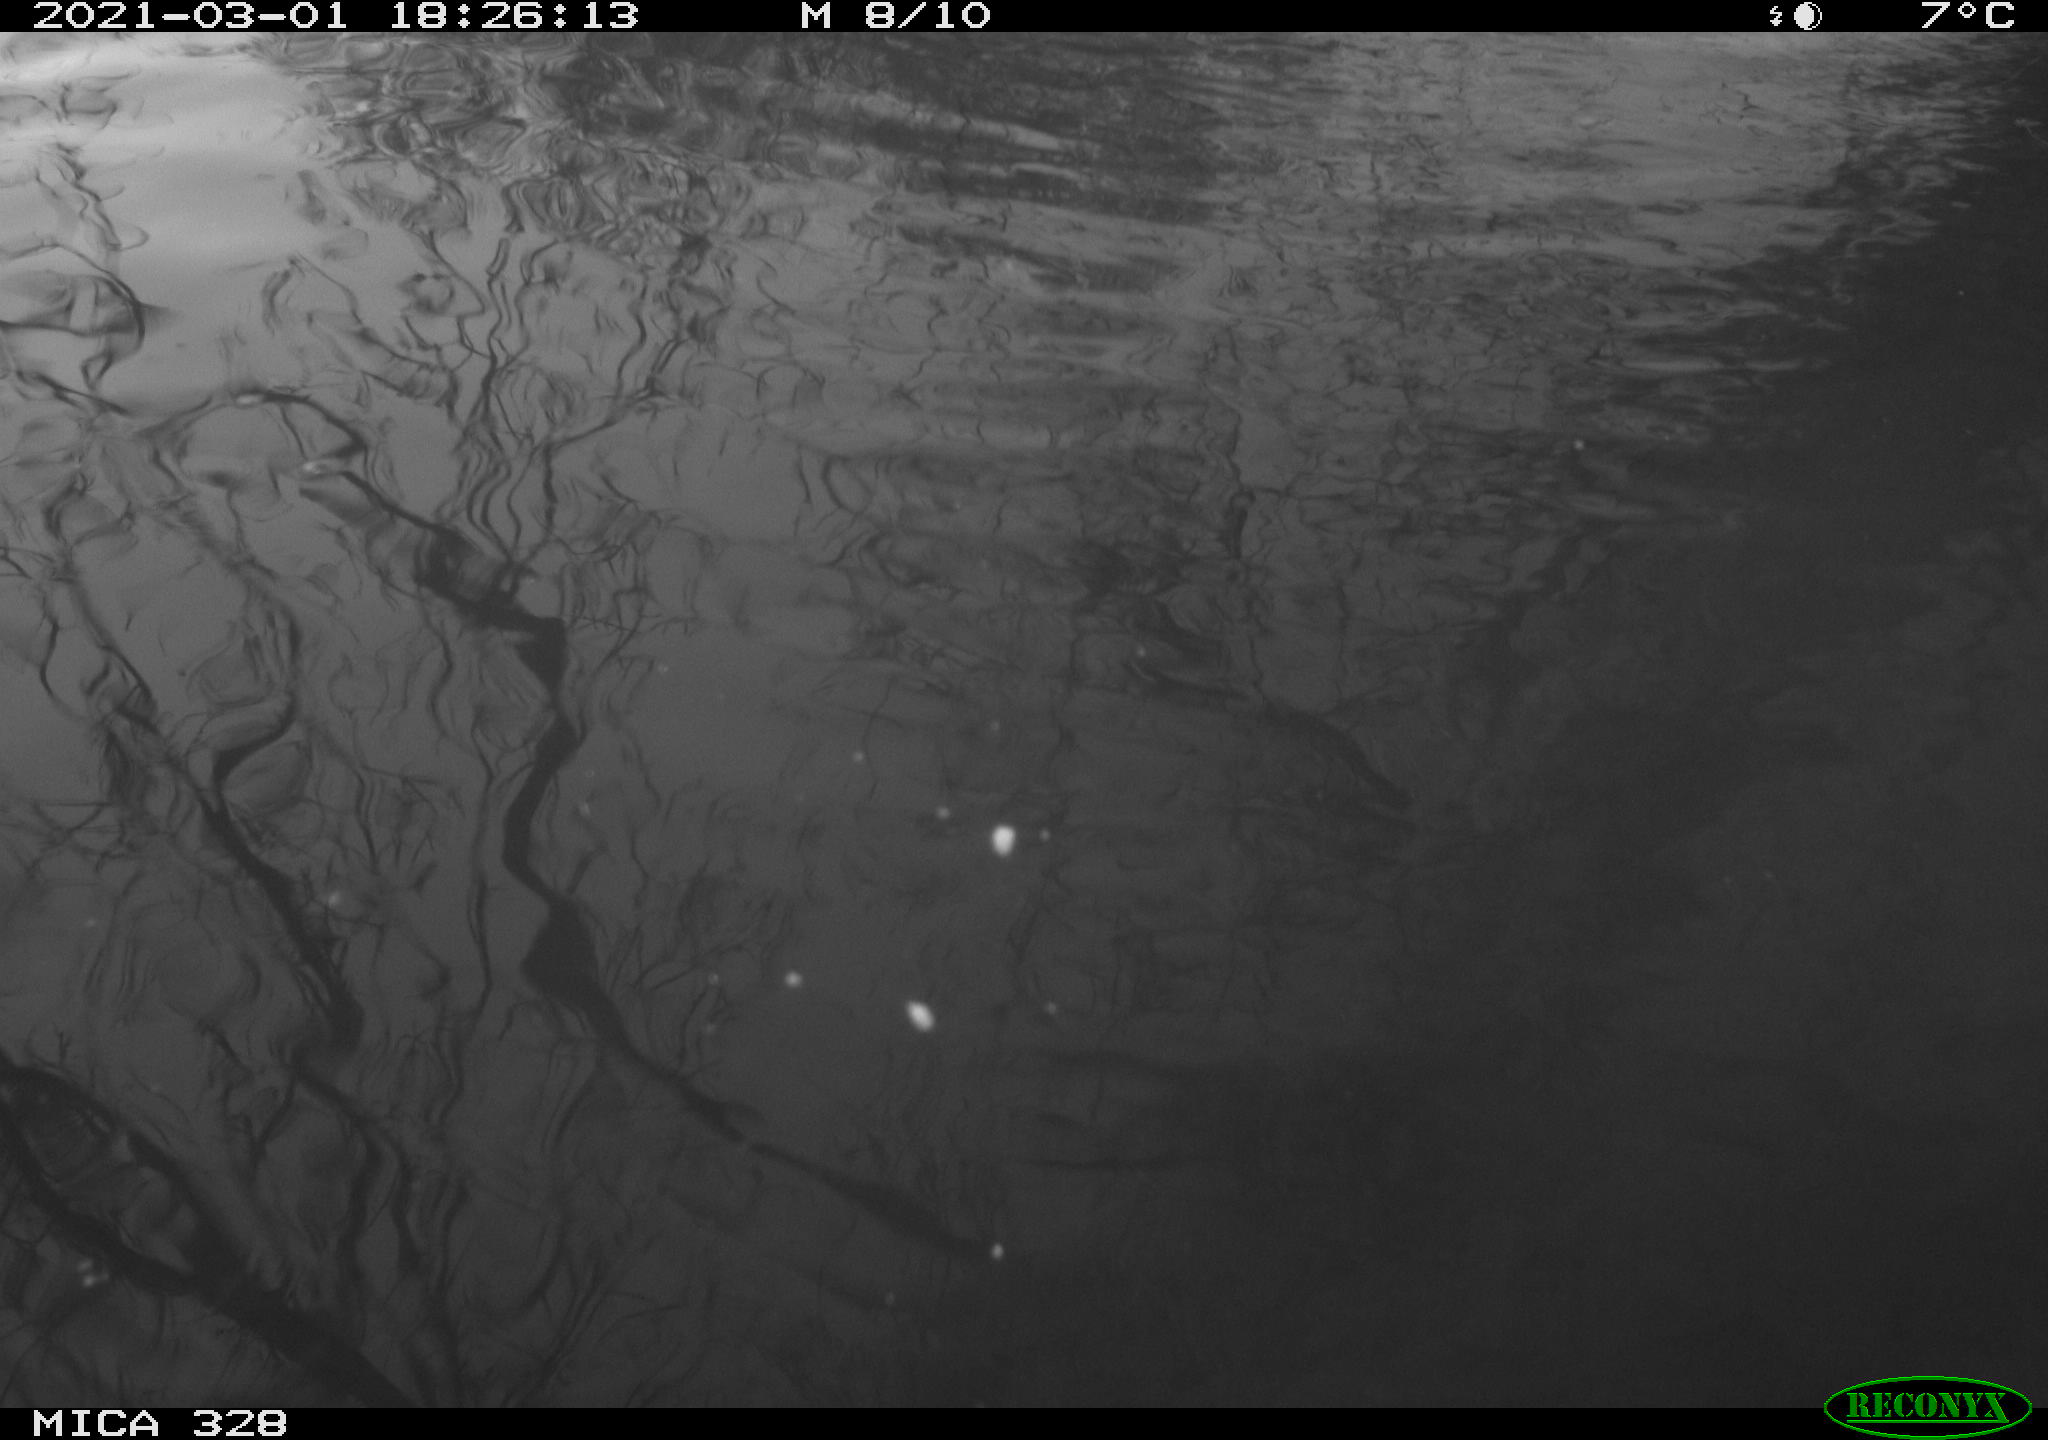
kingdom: Animalia
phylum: Chordata
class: Mammalia
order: Rodentia
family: Cricetidae
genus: Ondatra
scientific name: Ondatra zibethicus
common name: Muskrat
